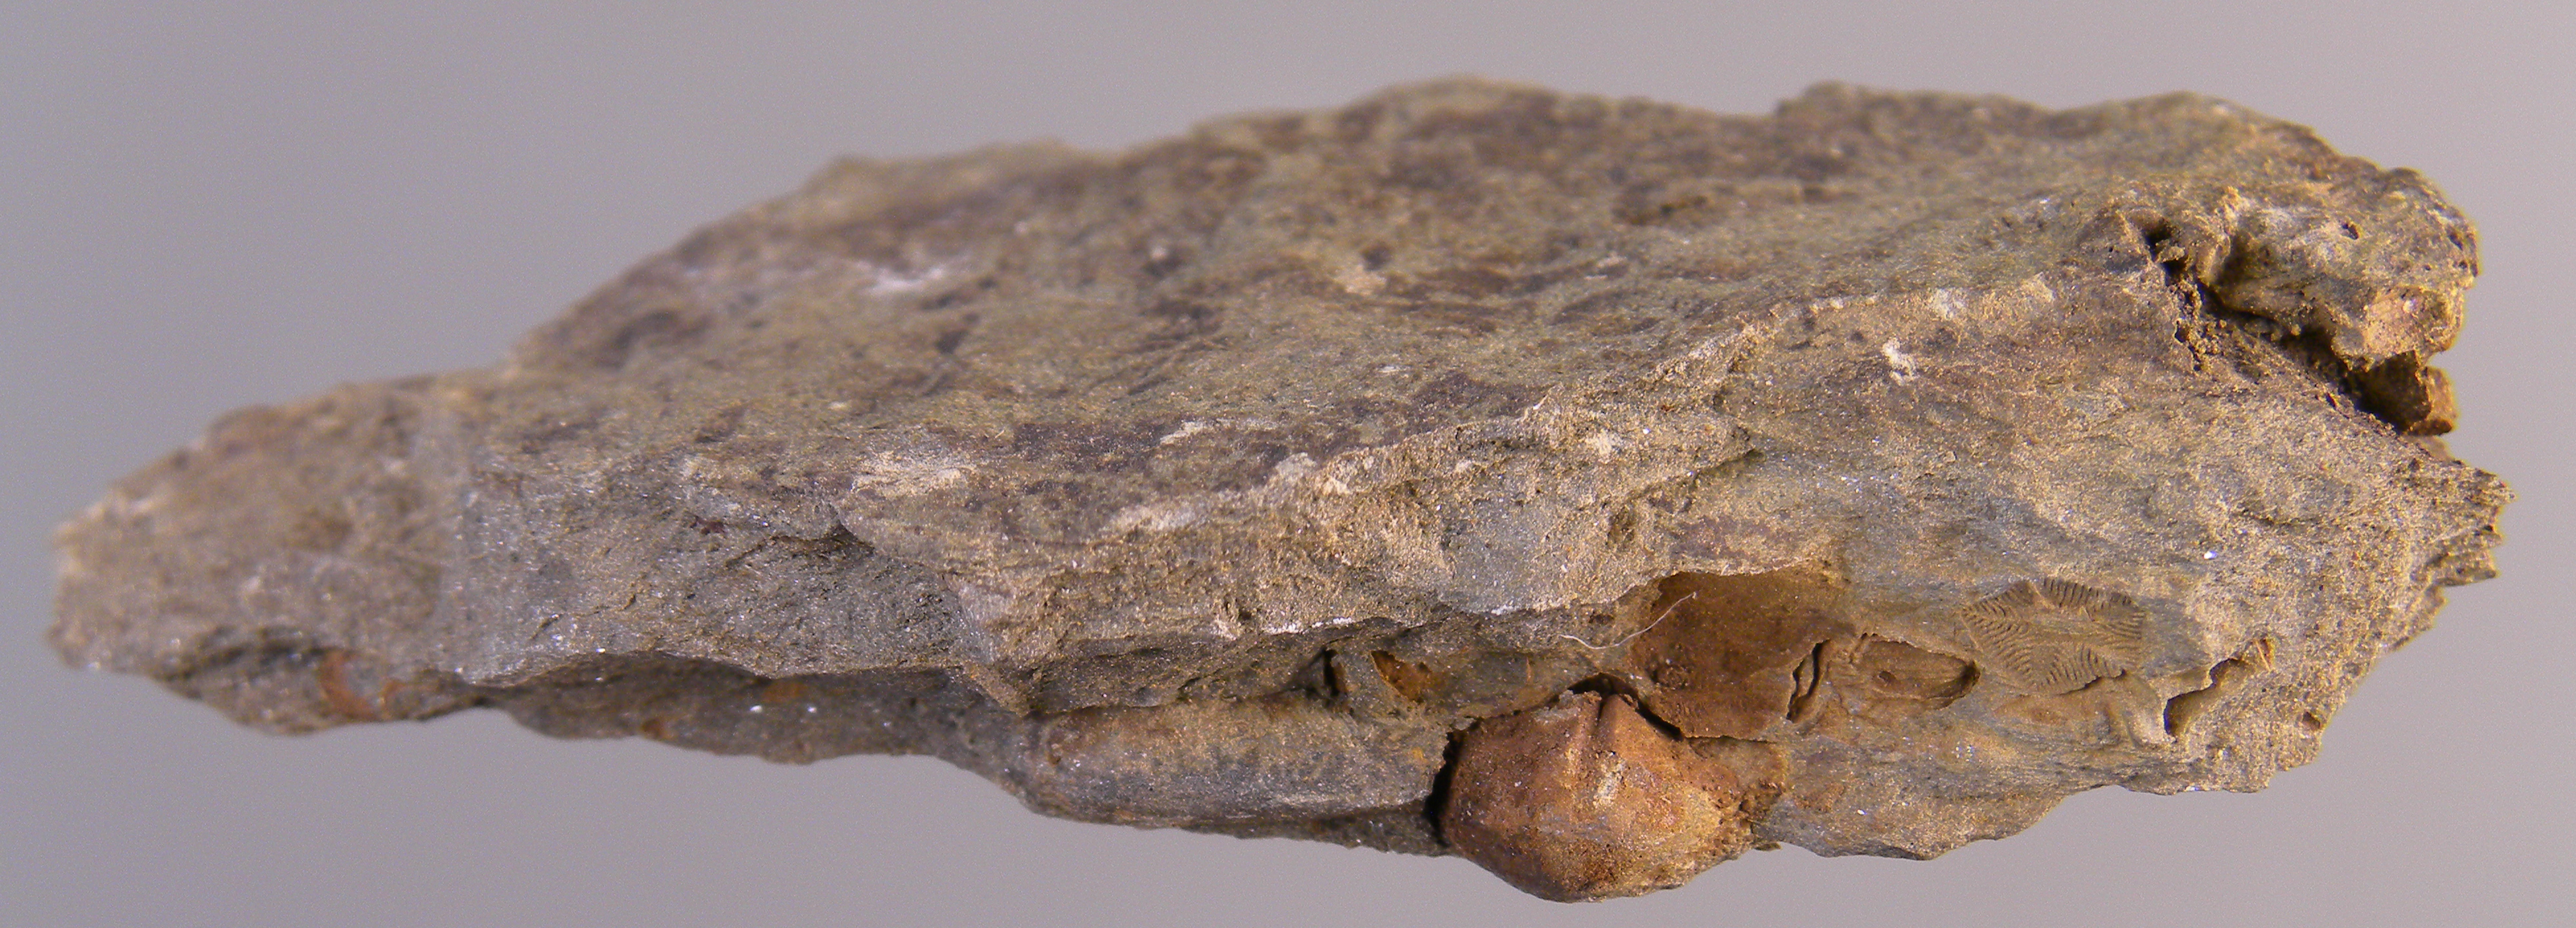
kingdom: Animalia
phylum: Echinodermata
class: Crinoidea
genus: Diamenocrinus
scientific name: Diamenocrinus
